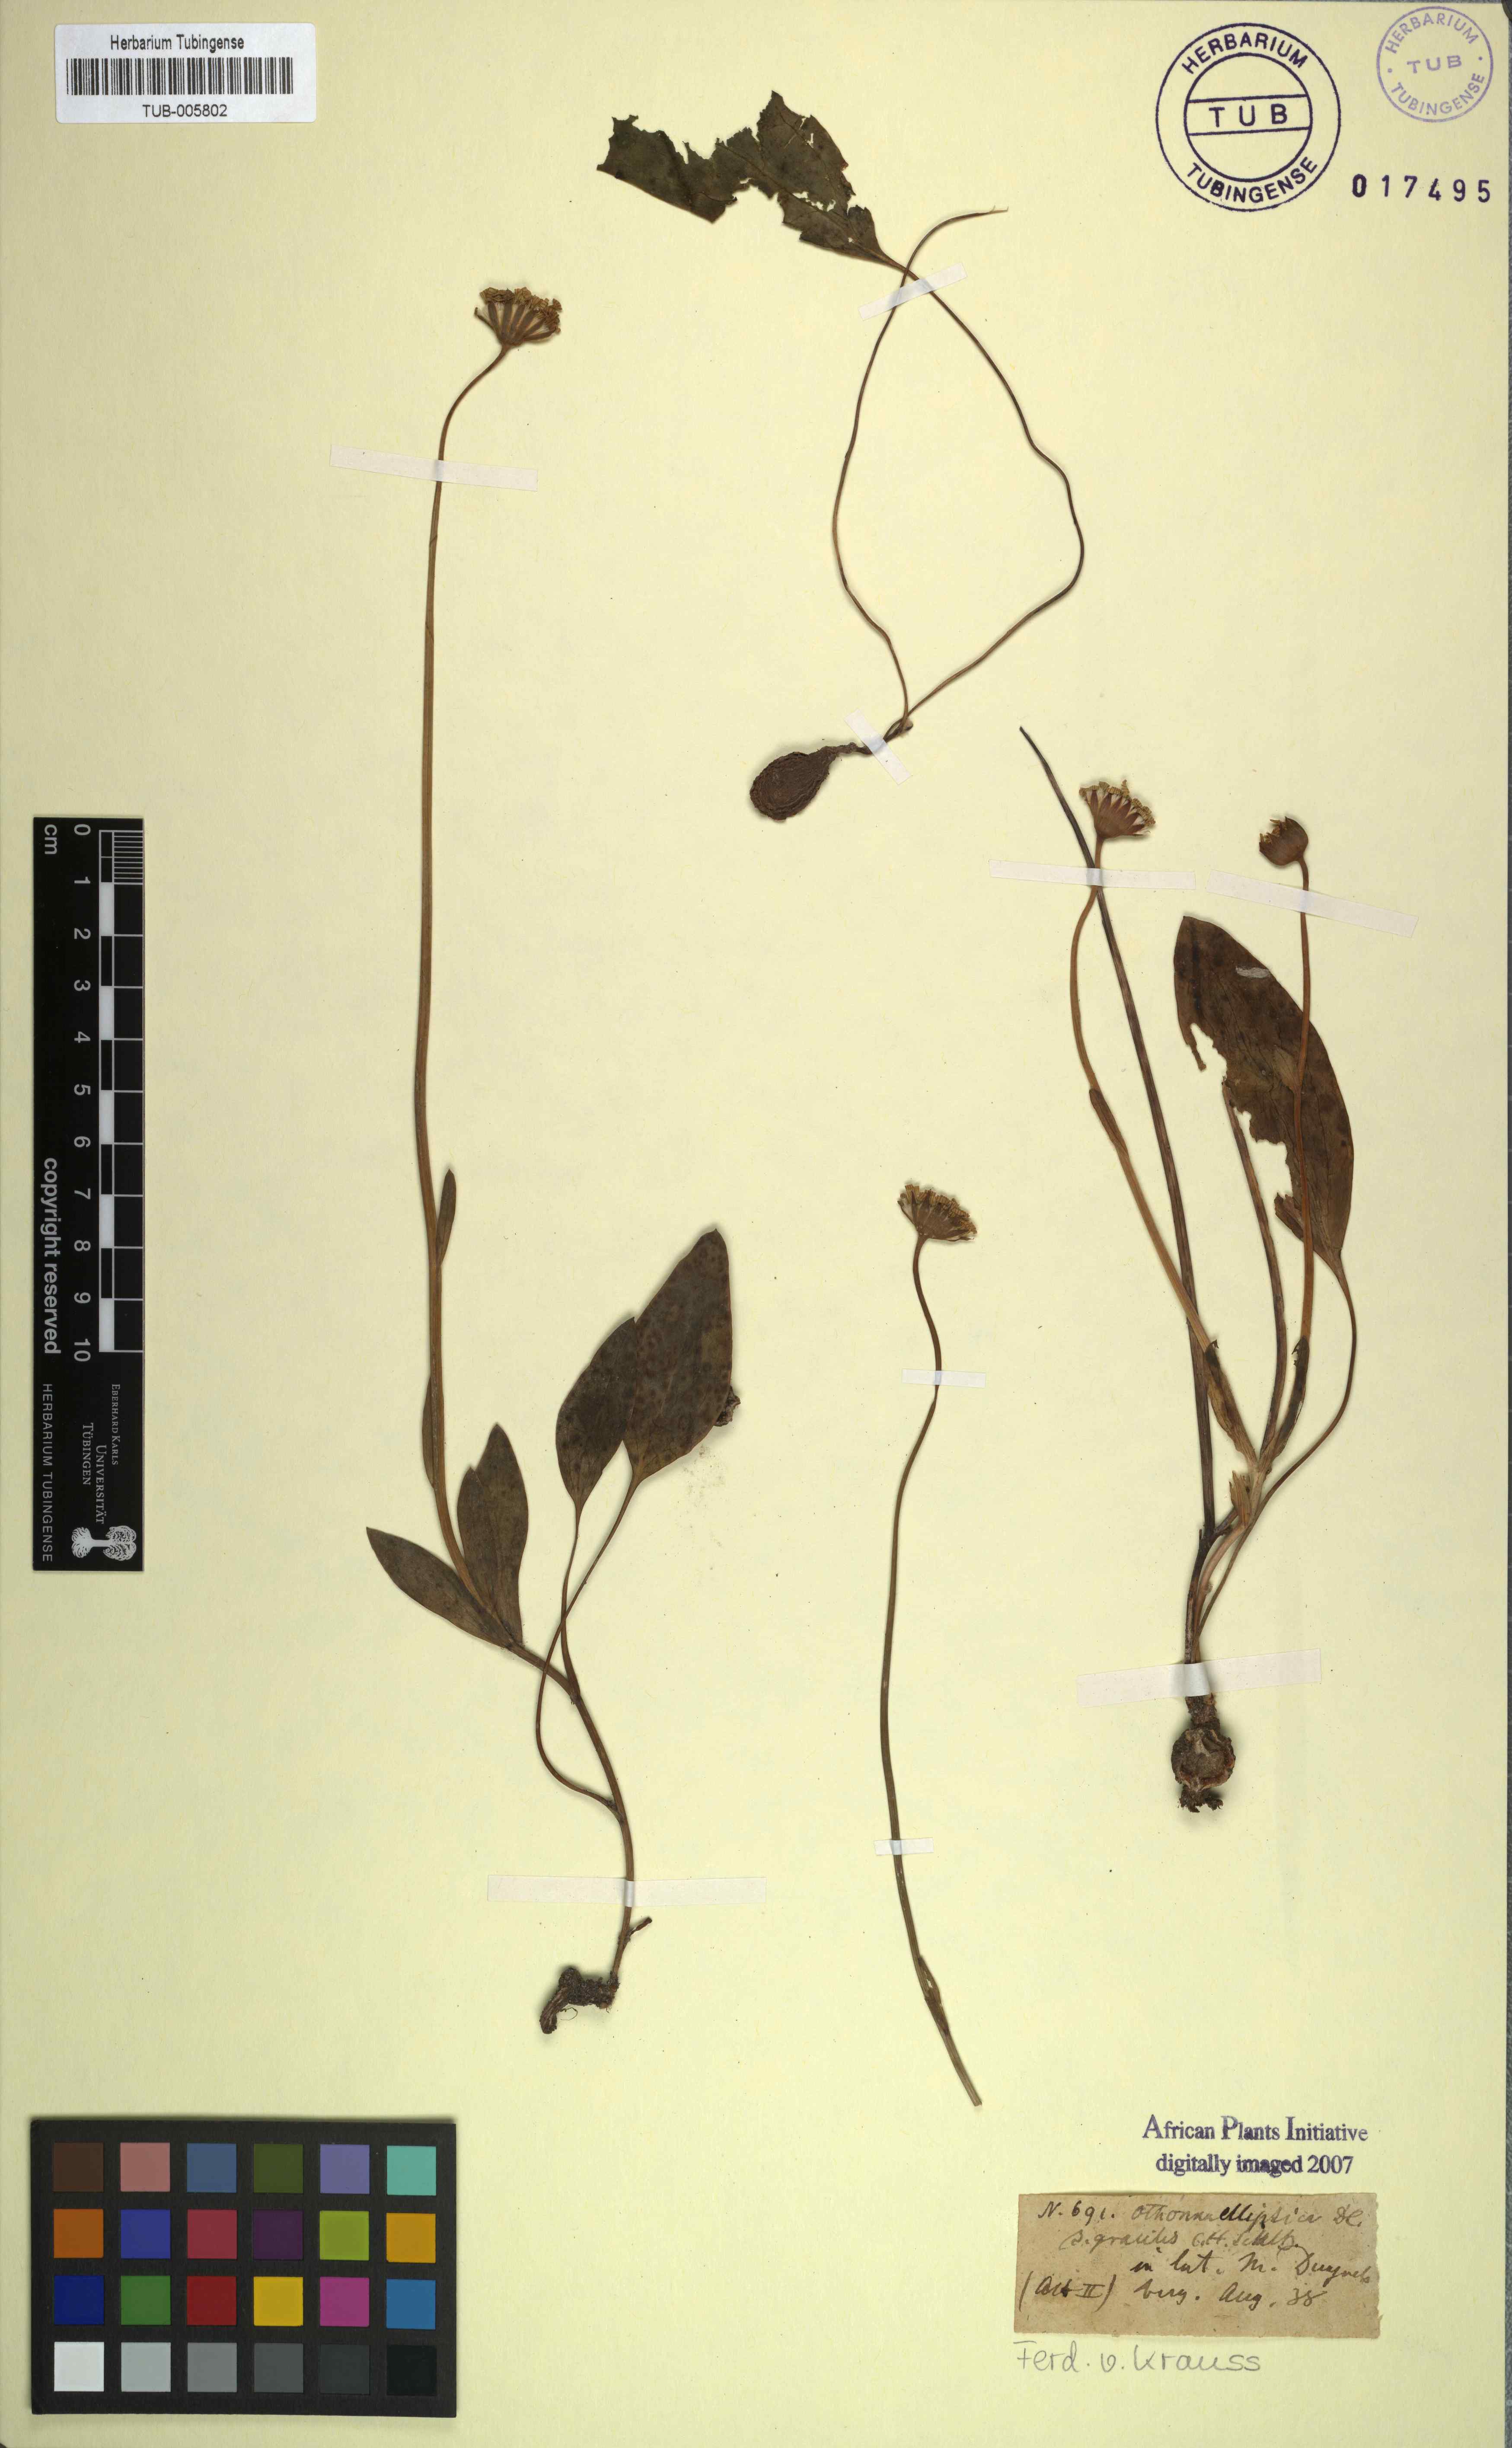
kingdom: Plantae
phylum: Tracheophyta
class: Magnoliopsida
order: Asterales
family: Asteraceae
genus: Othonna
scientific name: Othonna bulbosa
